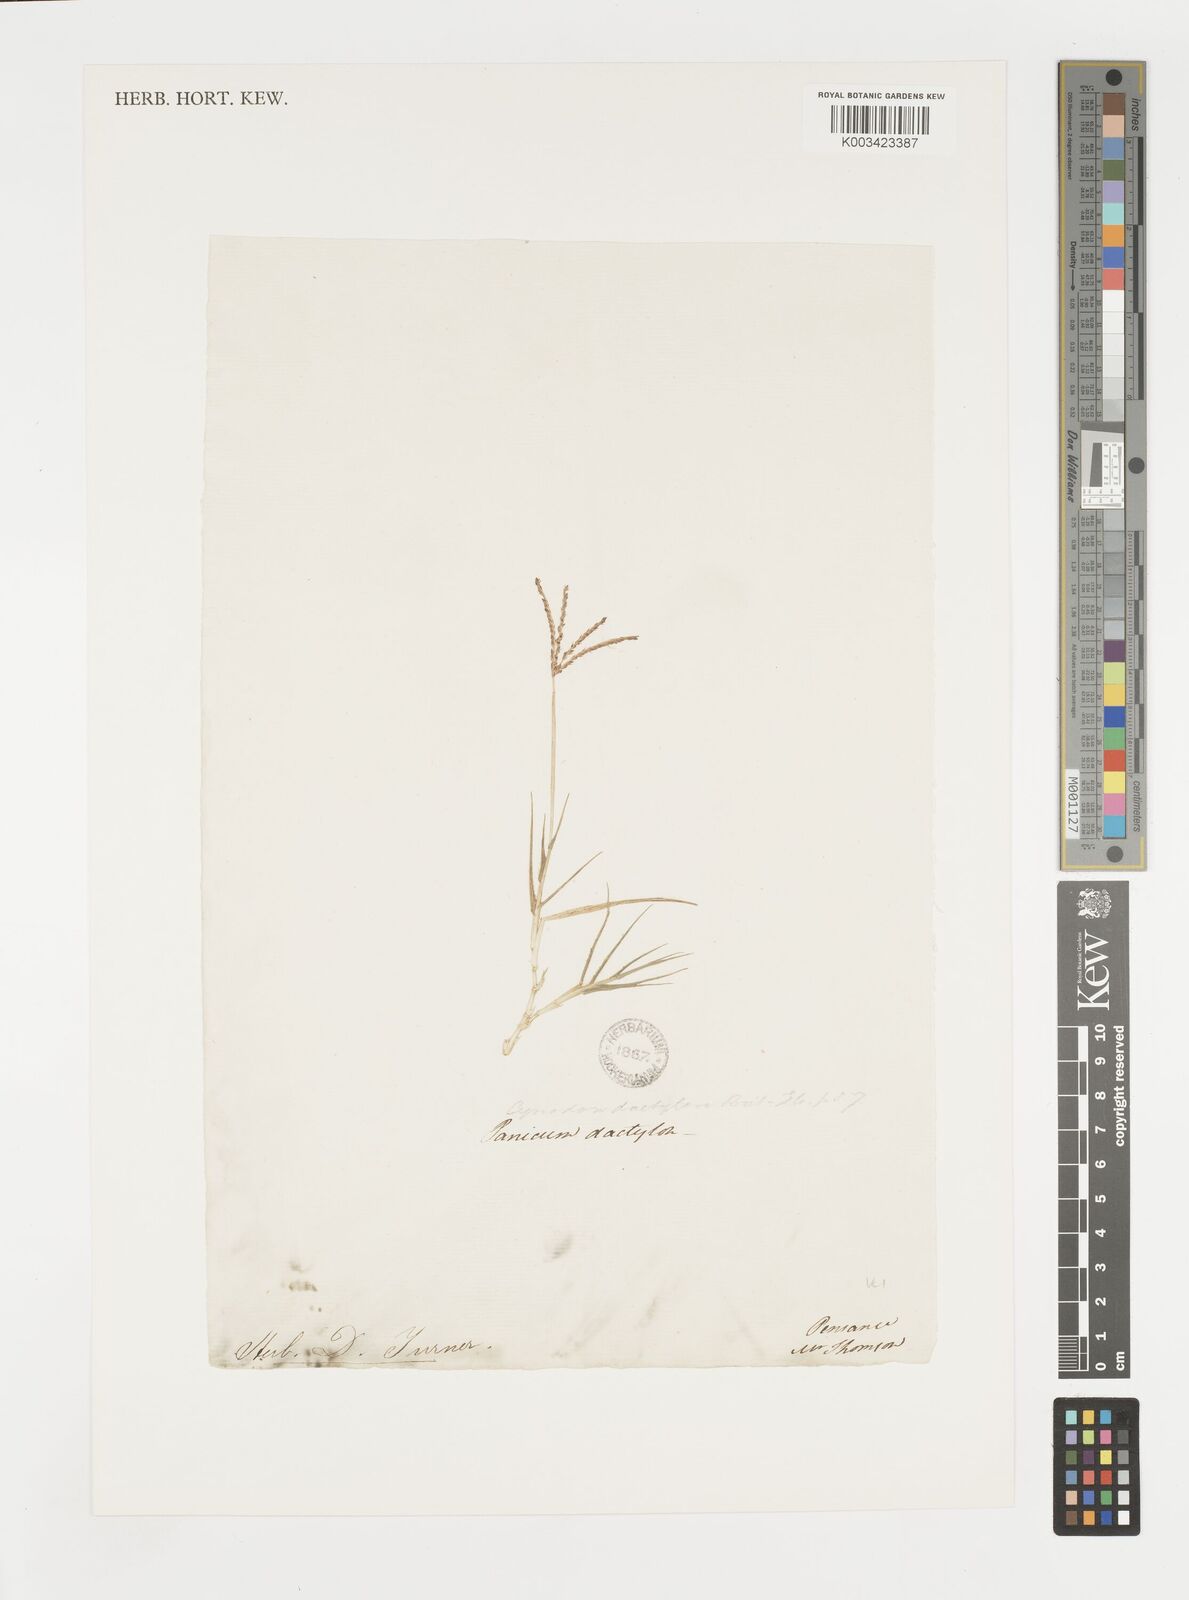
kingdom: Plantae
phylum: Tracheophyta
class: Liliopsida
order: Poales
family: Poaceae
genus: Cynodon
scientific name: Cynodon dactylon
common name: Bermuda grass
